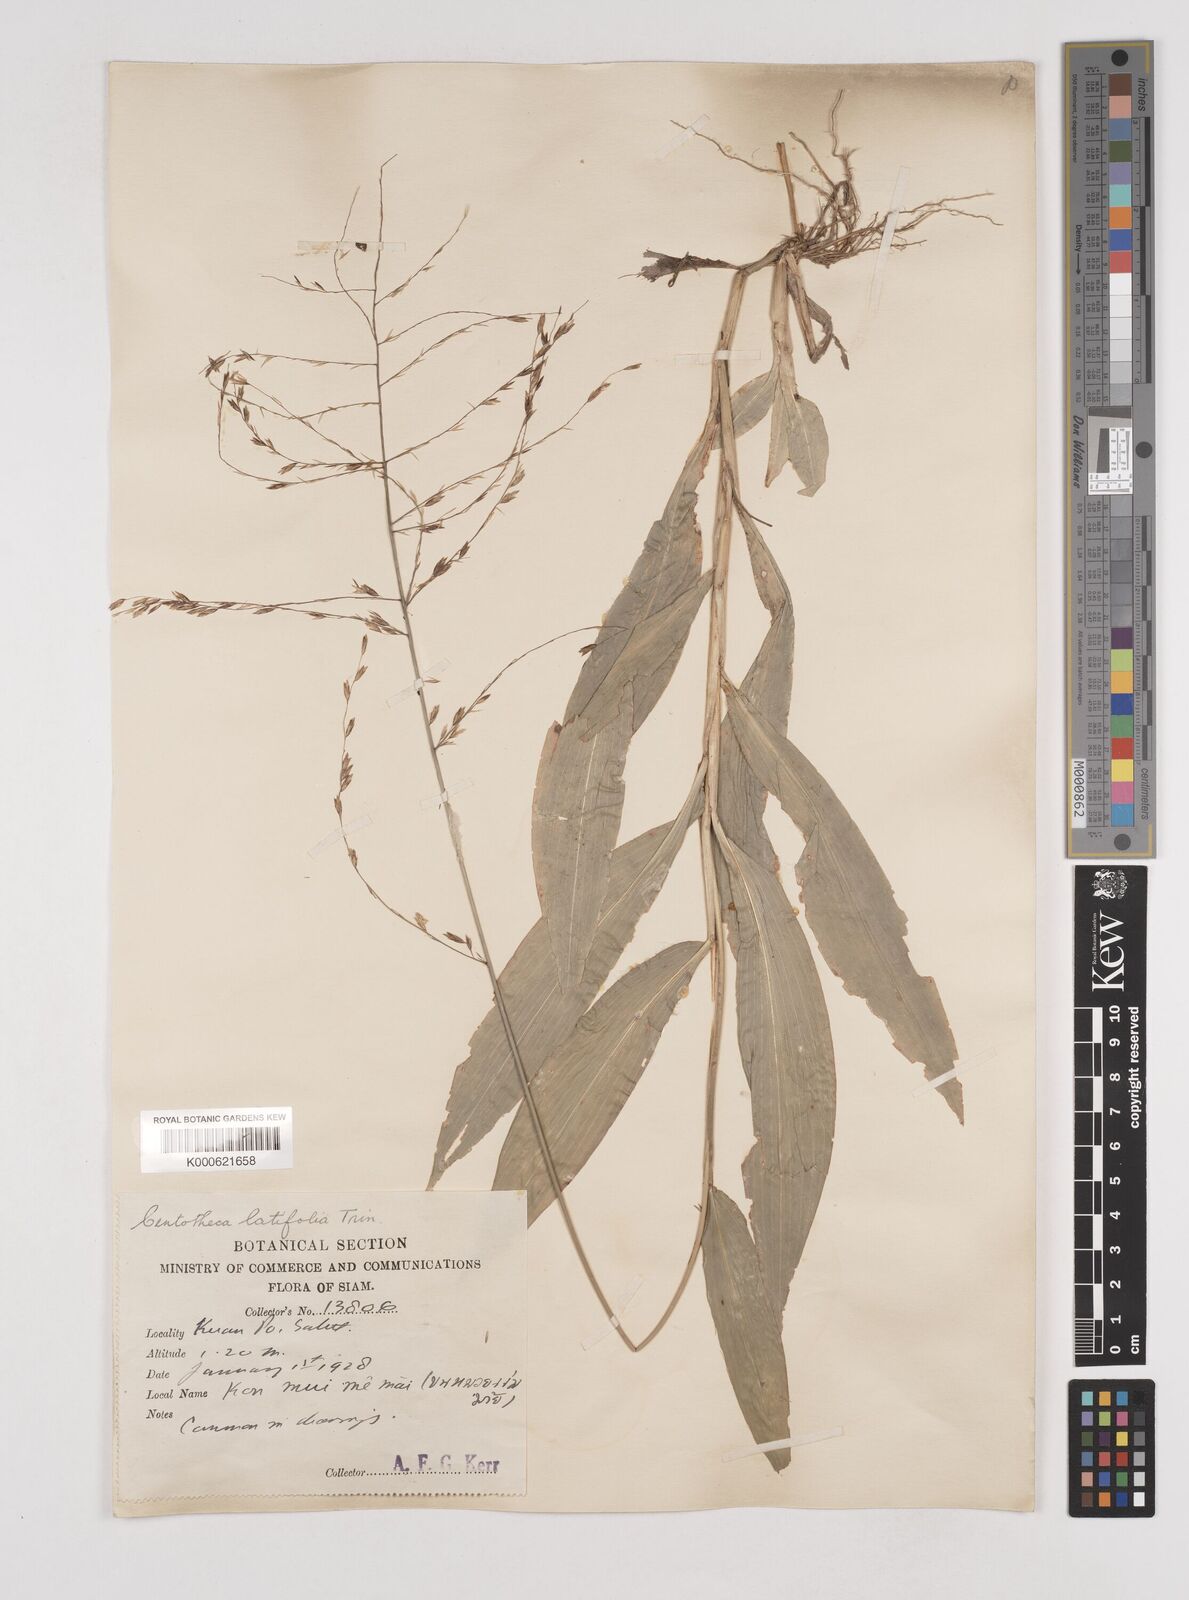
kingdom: Plantae
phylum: Tracheophyta
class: Liliopsida
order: Poales
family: Poaceae
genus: Centotheca
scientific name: Centotheca lappacea
